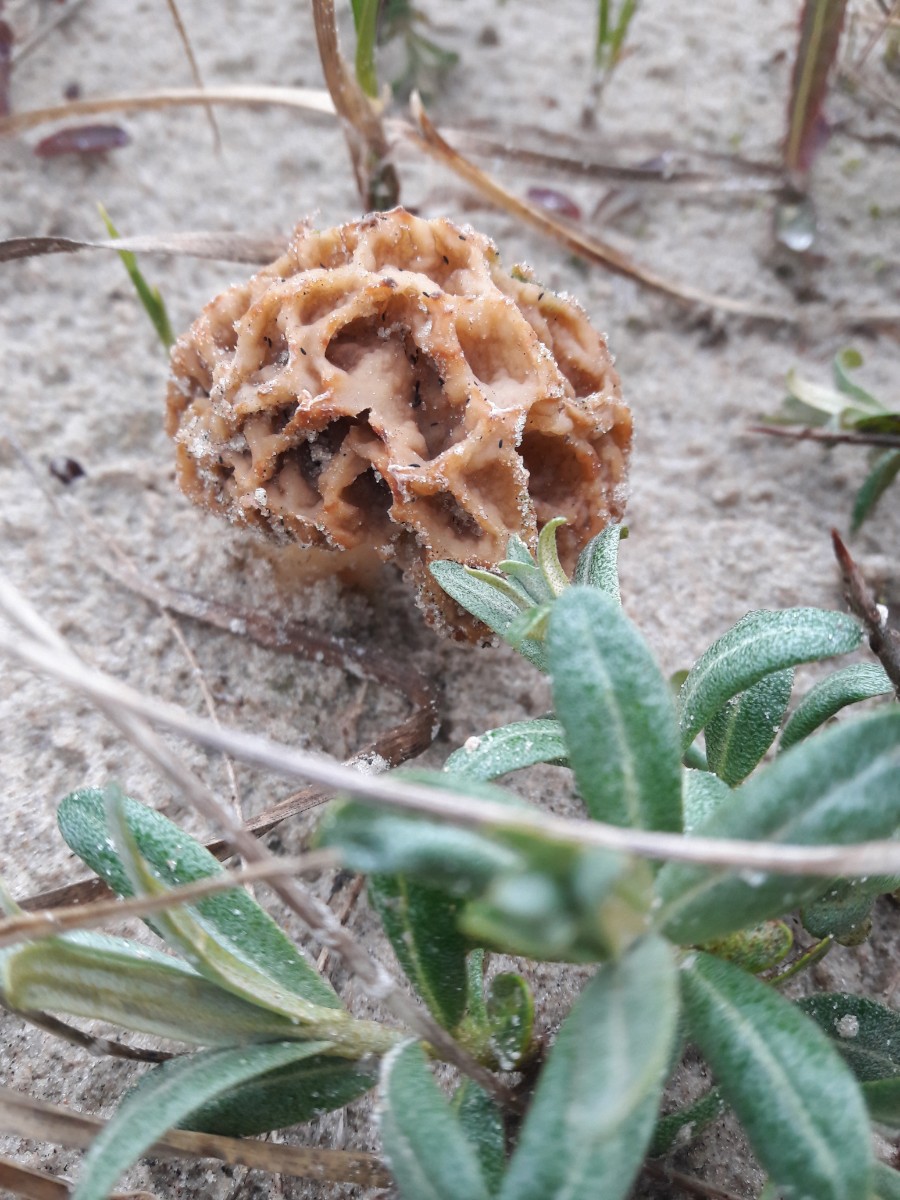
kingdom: Fungi
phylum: Ascomycota
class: Pezizomycetes
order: Pezizales
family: Morchellaceae
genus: Morchella
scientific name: Morchella esculenta
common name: almindelig morkel
